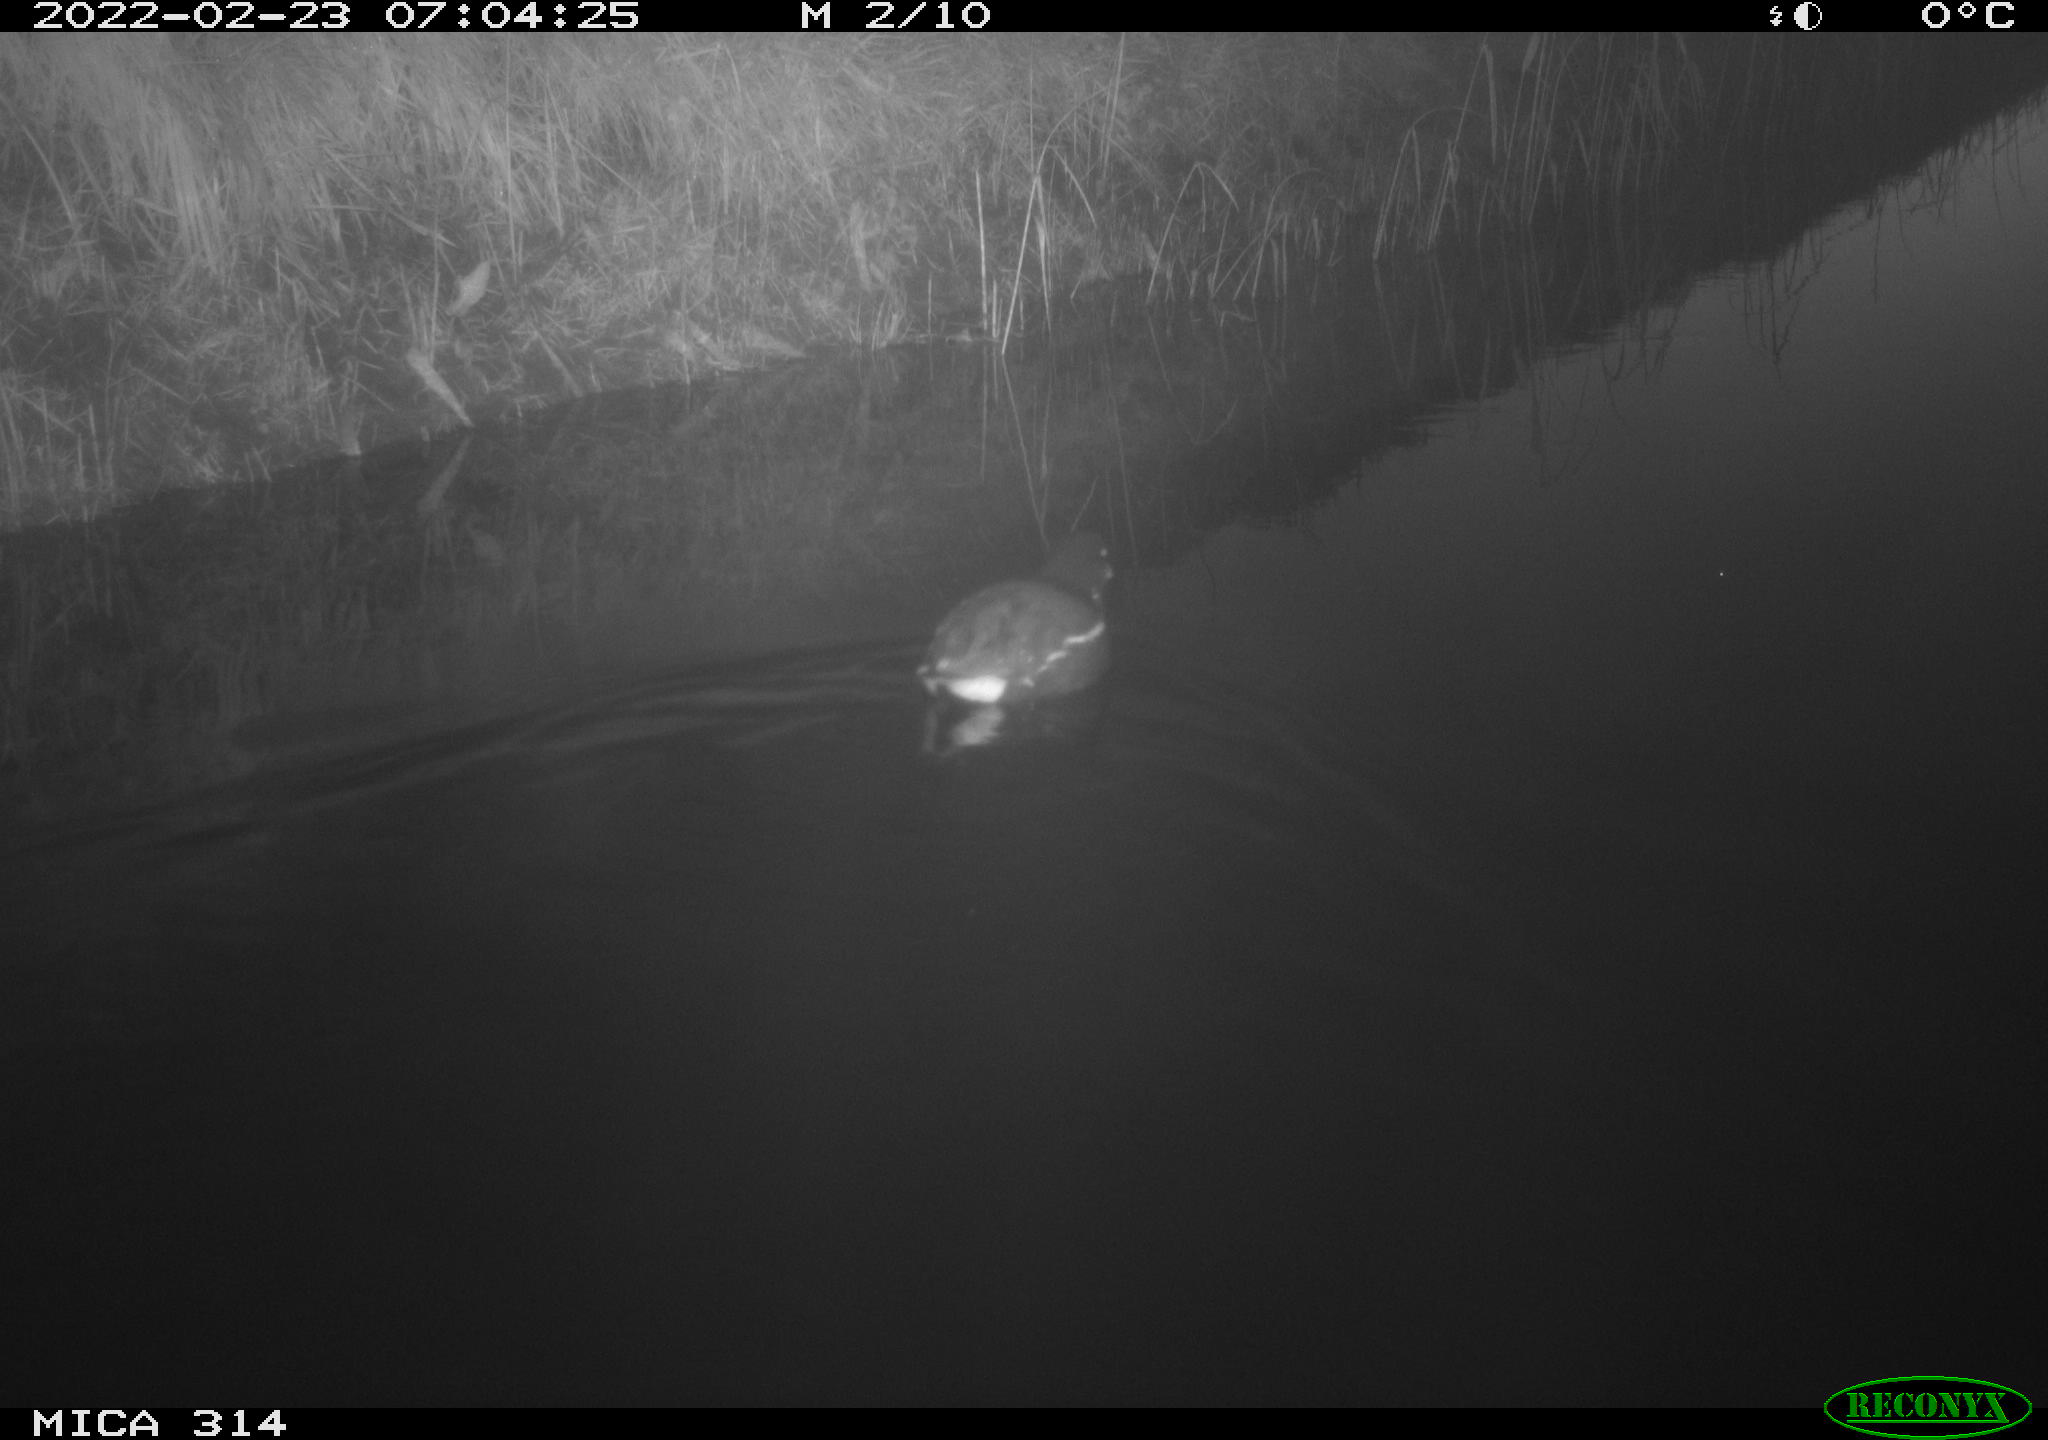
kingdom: Animalia
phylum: Chordata
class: Aves
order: Gruiformes
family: Rallidae
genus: Gallinula
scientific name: Gallinula chloropus
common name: Common moorhen
